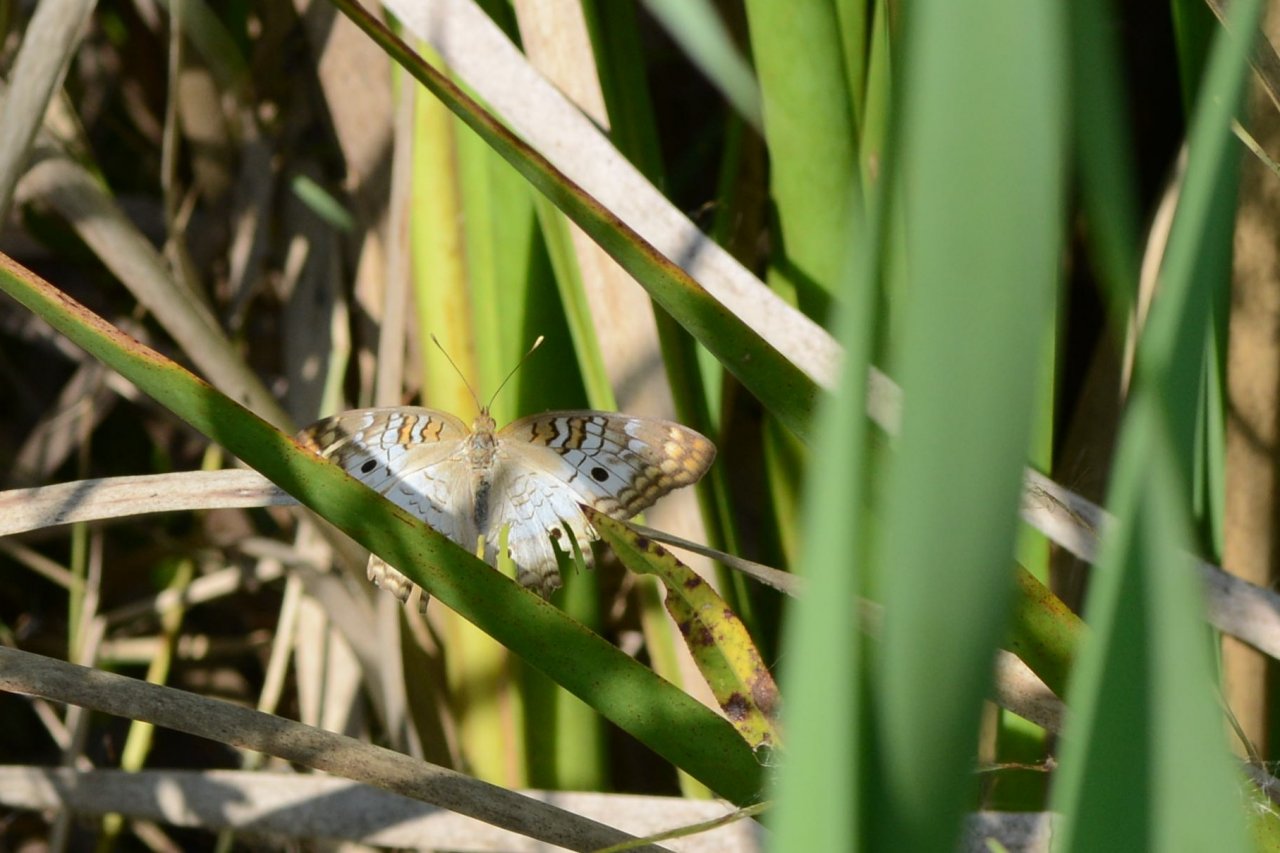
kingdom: Animalia
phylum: Arthropoda
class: Insecta
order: Lepidoptera
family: Nymphalidae
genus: Anartia
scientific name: Anartia jatrophae
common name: White Peacock
